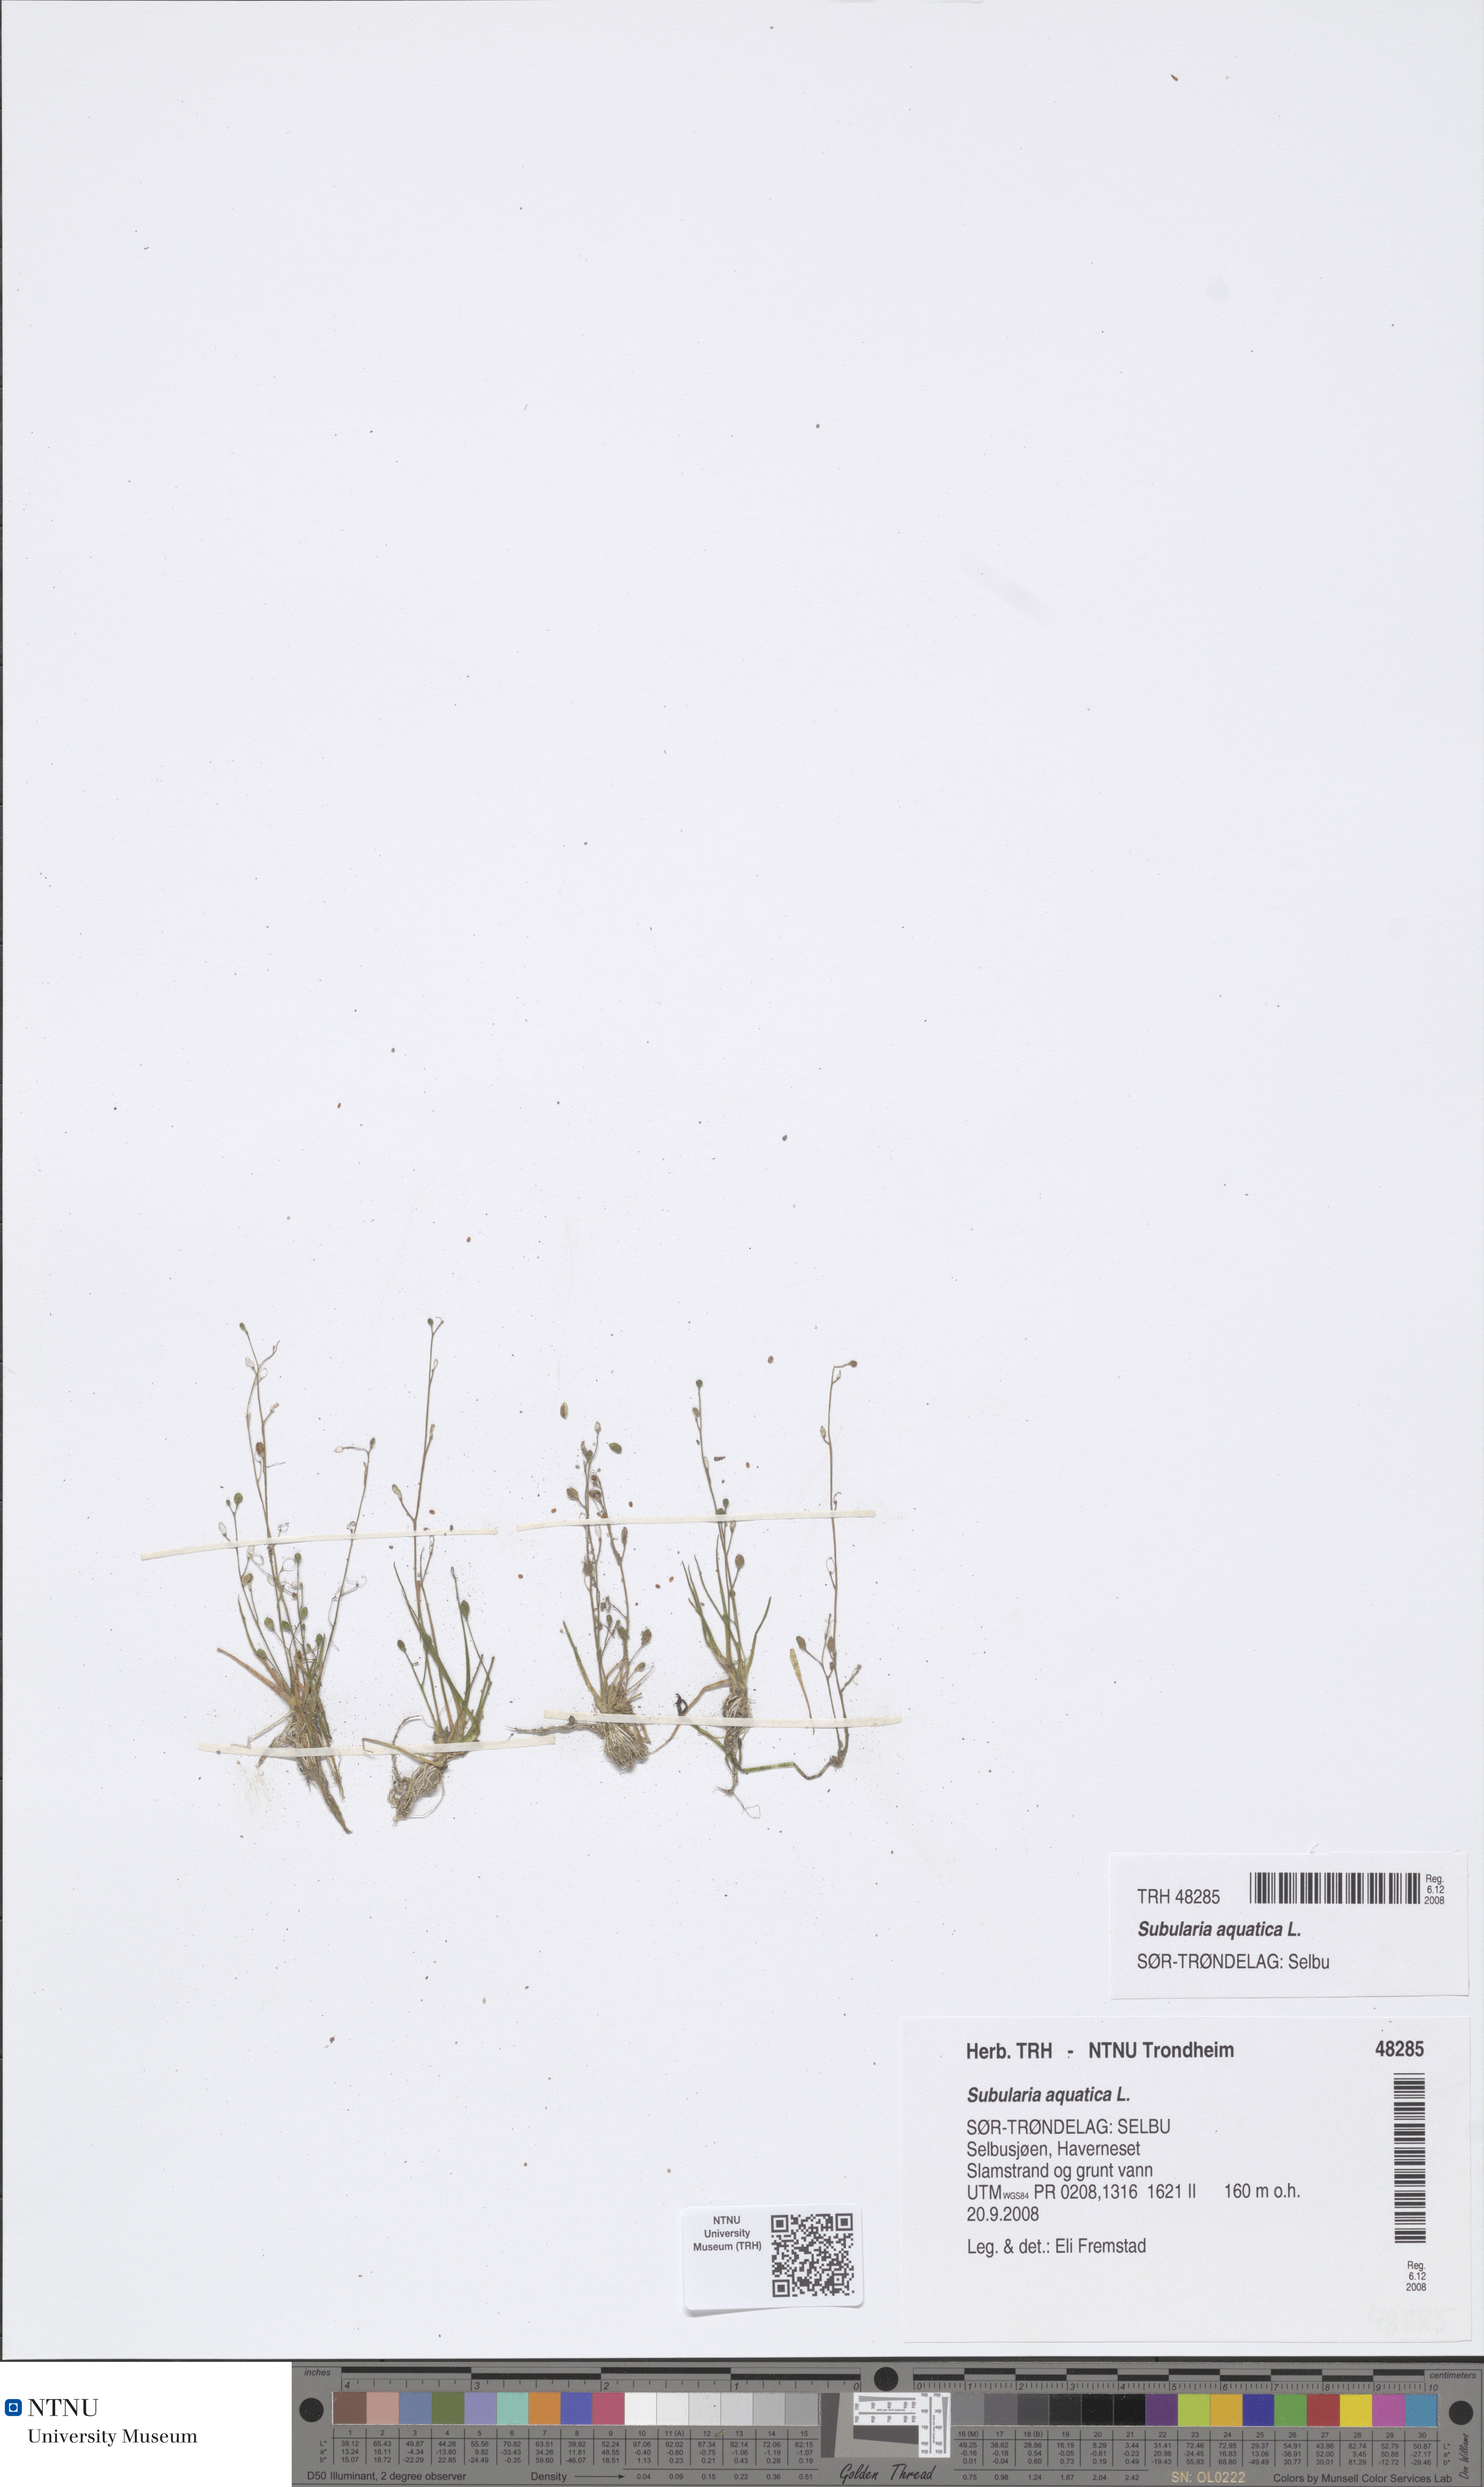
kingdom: Plantae
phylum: Tracheophyta
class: Magnoliopsida
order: Brassicales
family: Brassicaceae
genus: Subularia
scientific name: Subularia aquatica
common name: Awlwort
